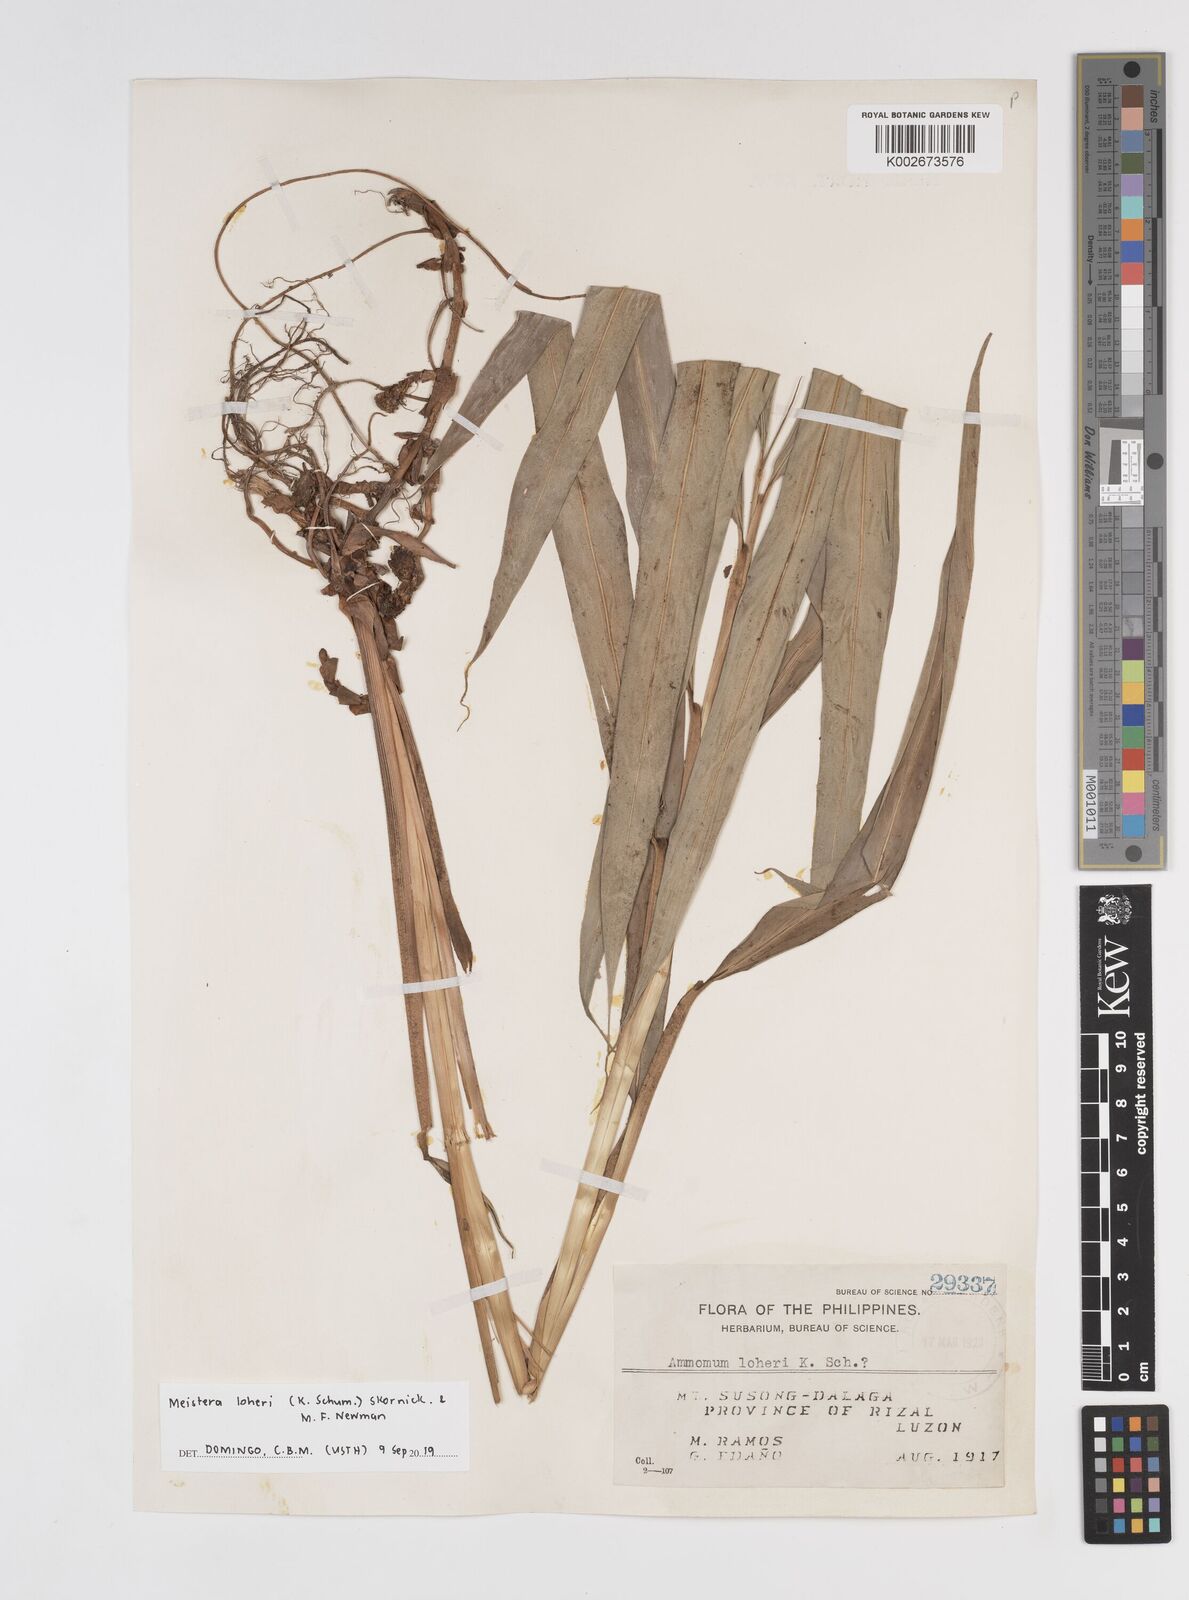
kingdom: Plantae
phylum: Tracheophyta
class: Liliopsida
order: Zingiberales
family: Zingiberaceae
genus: Meistera
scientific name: Meistera loheri
